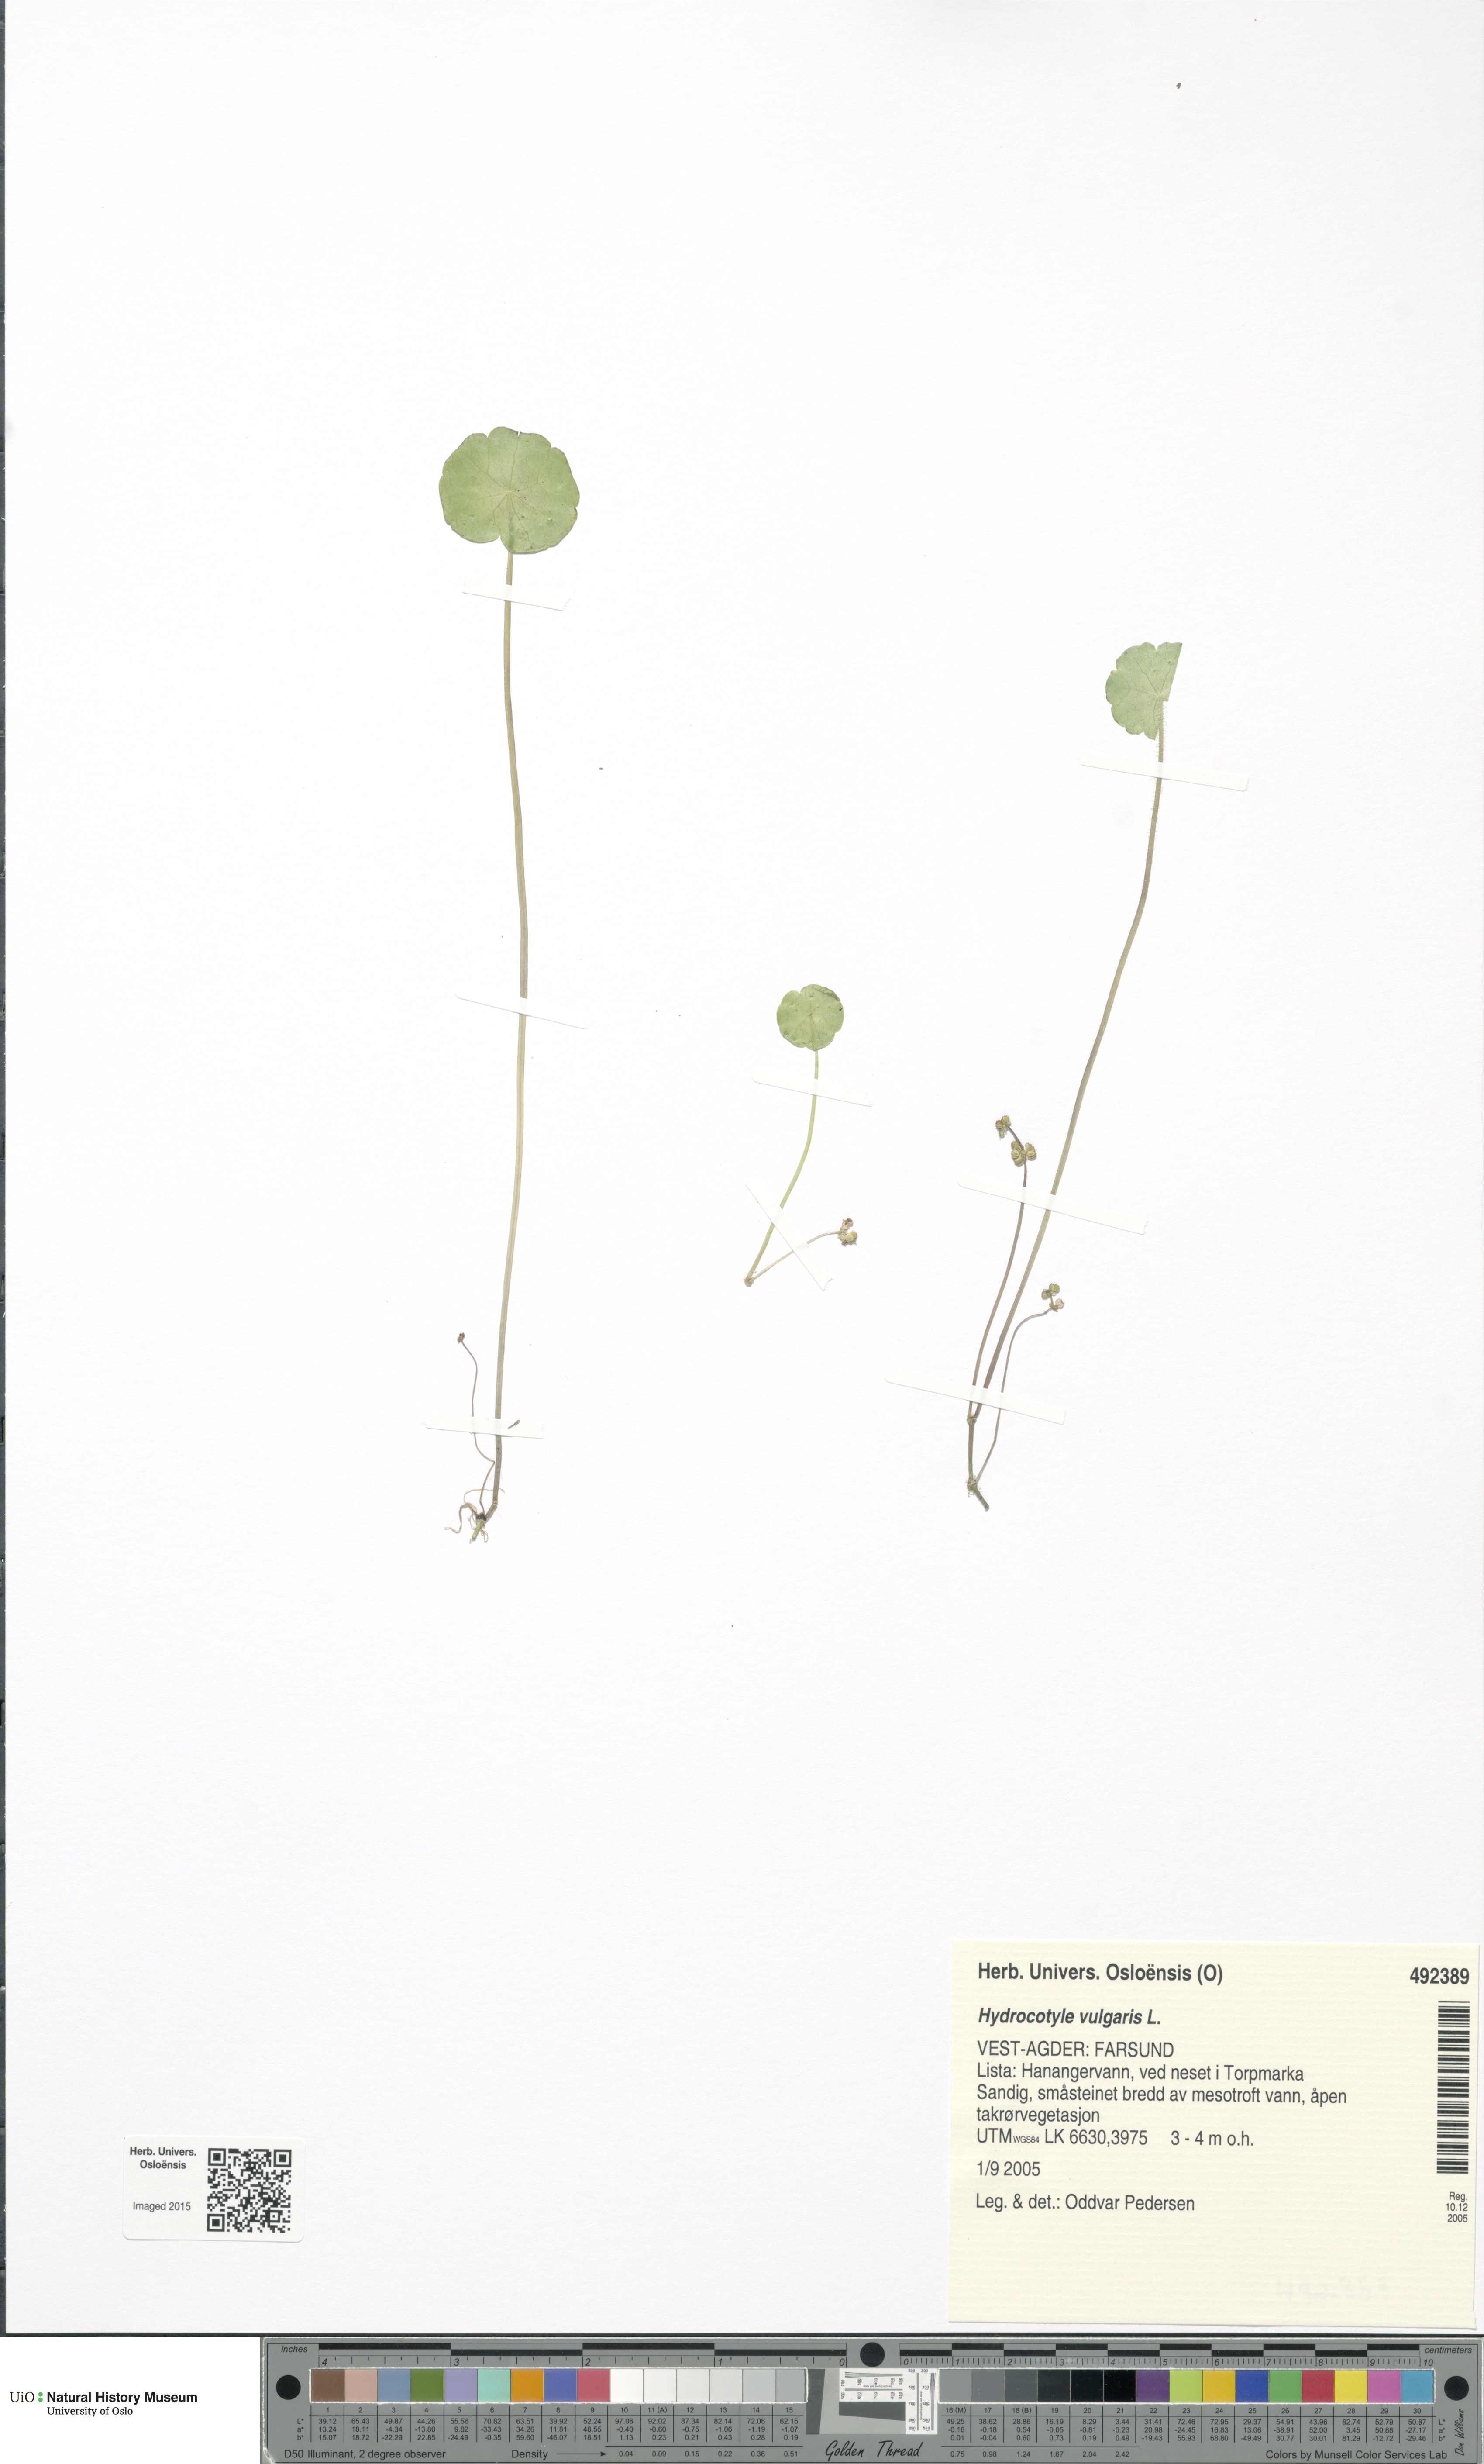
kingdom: Plantae
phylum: Tracheophyta
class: Magnoliopsida
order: Apiales
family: Araliaceae
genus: Hydrocotyle
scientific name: Hydrocotyle vulgaris
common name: Marsh pennywort
